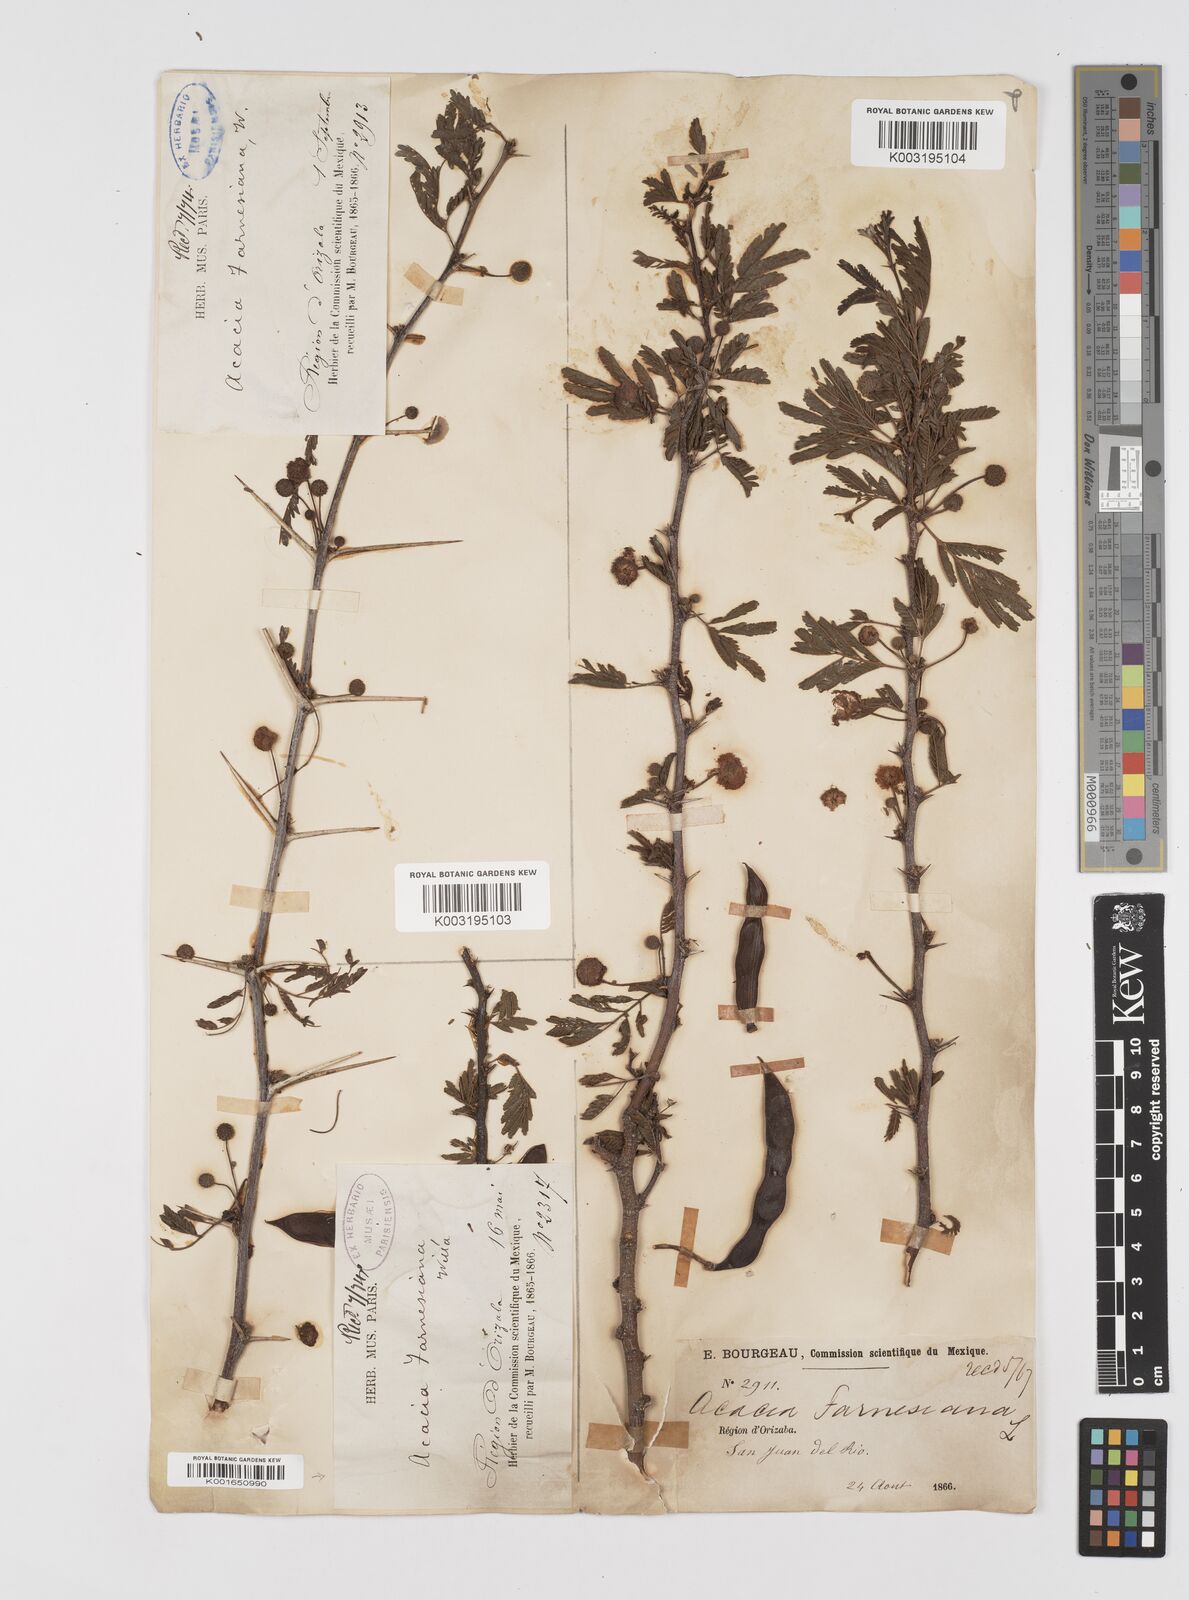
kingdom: Plantae
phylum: Tracheophyta
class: Magnoliopsida
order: Fabales
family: Fabaceae
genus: Vachellia
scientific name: Vachellia farnesiana
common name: Sweet acacia
